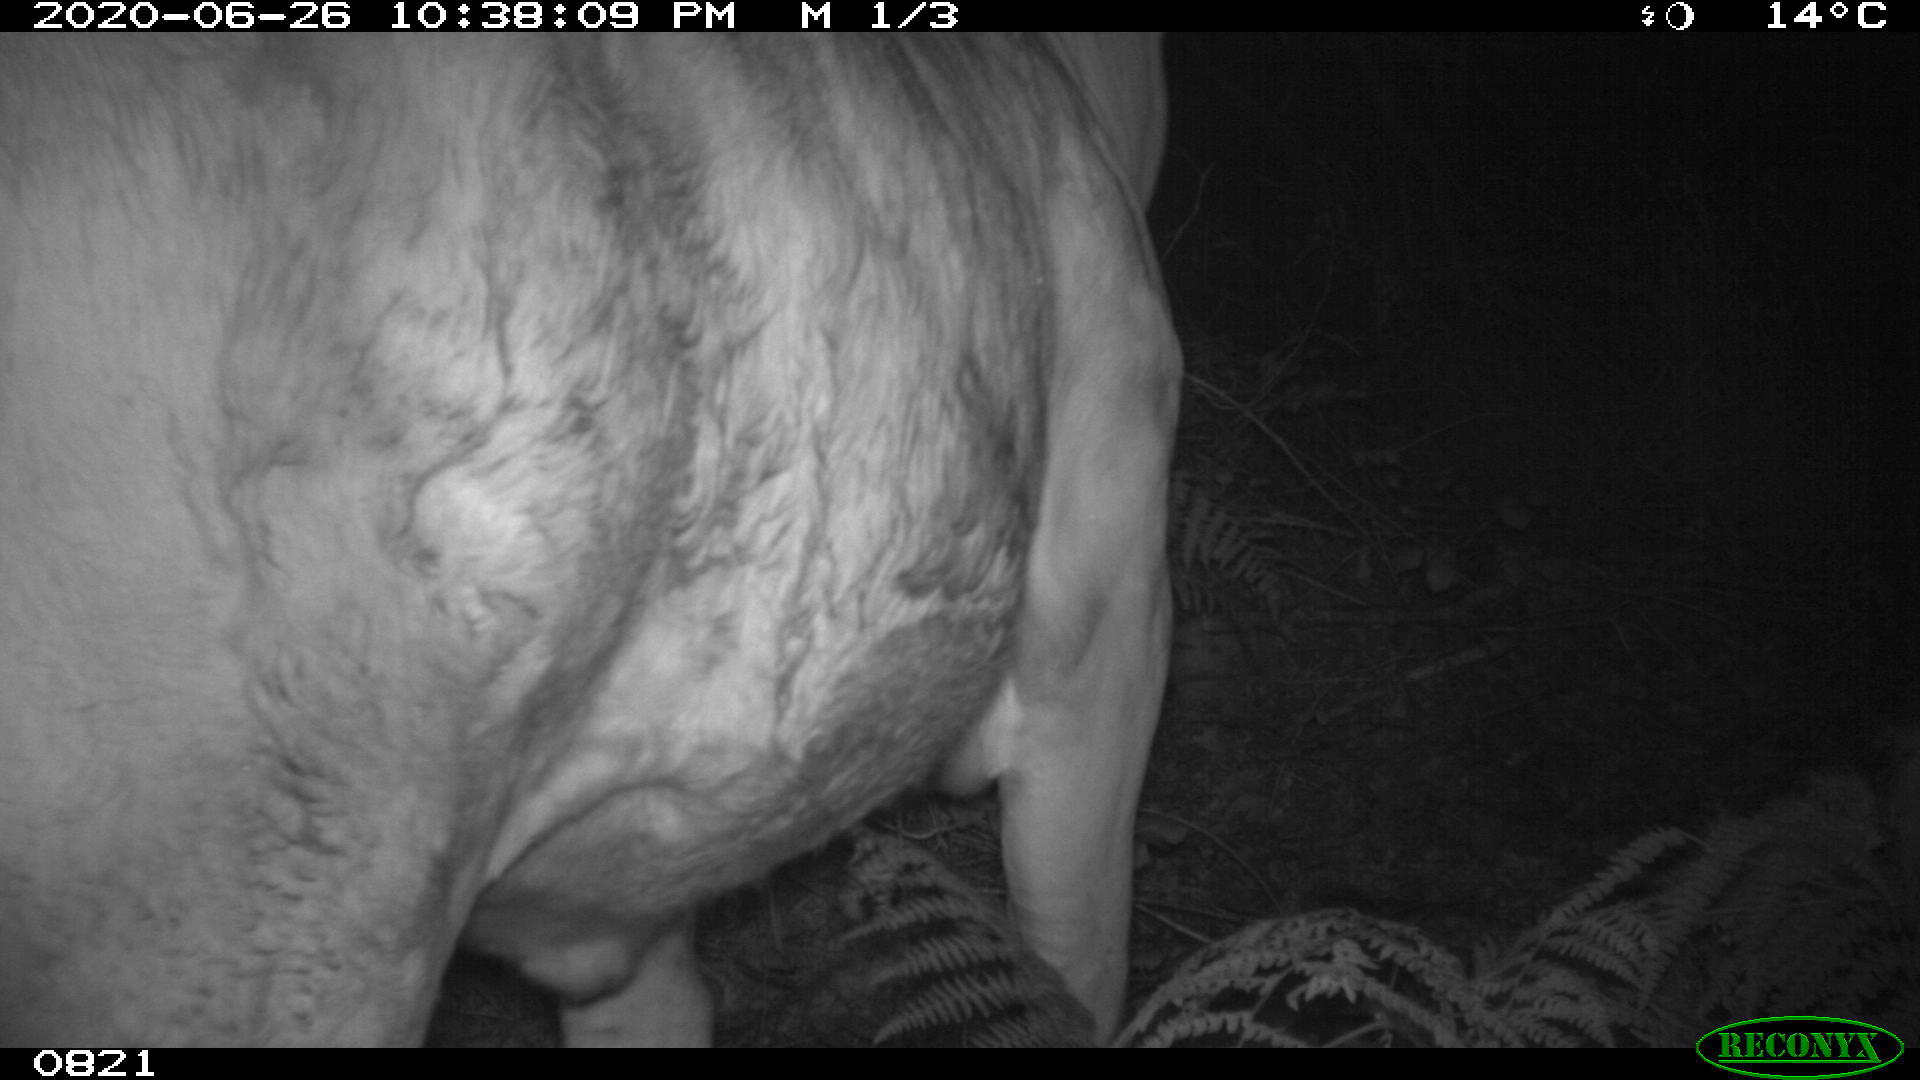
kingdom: Animalia
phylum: Chordata
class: Mammalia
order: Artiodactyla
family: Bovidae
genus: Bos
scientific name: Bos taurus
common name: Domesticated cattle
